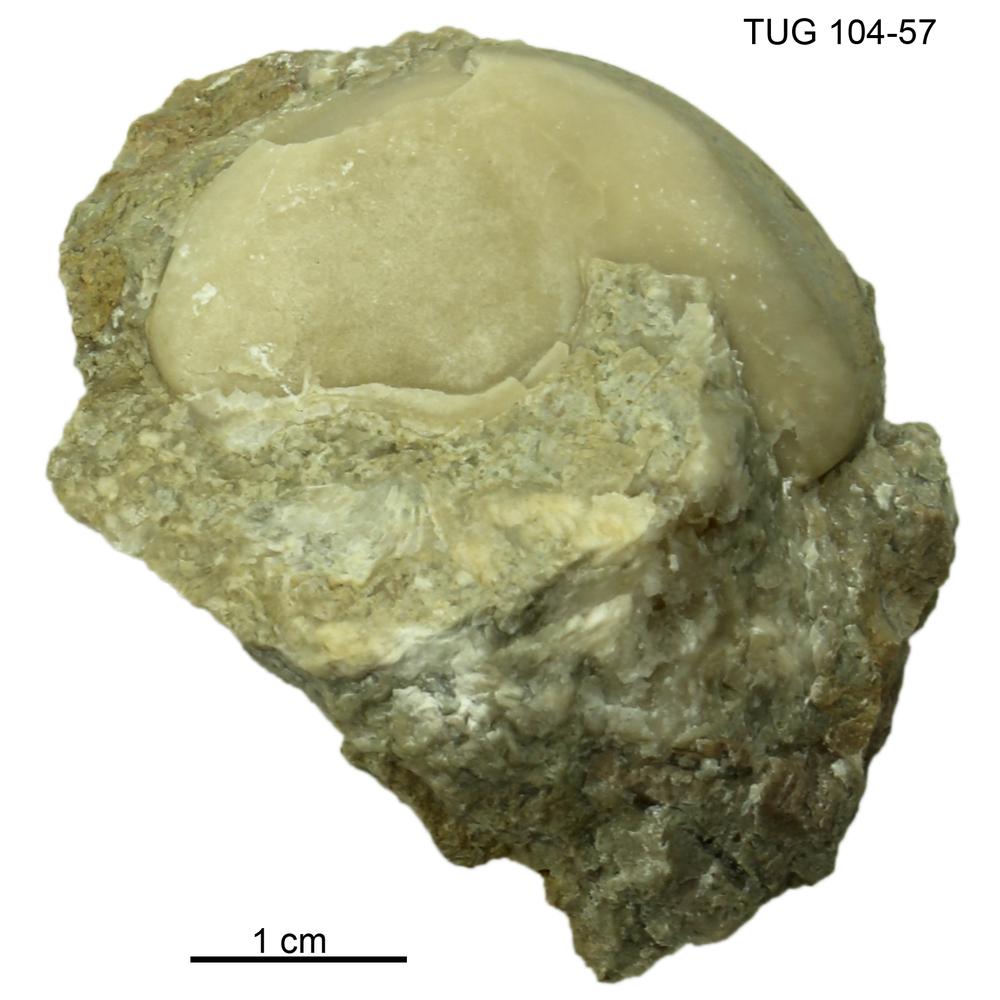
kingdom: Animalia
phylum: Arthropoda
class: Trilobita
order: Corynexochida
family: Illaenidae
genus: Stenopareia
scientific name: Stenopareia linnarssoni
